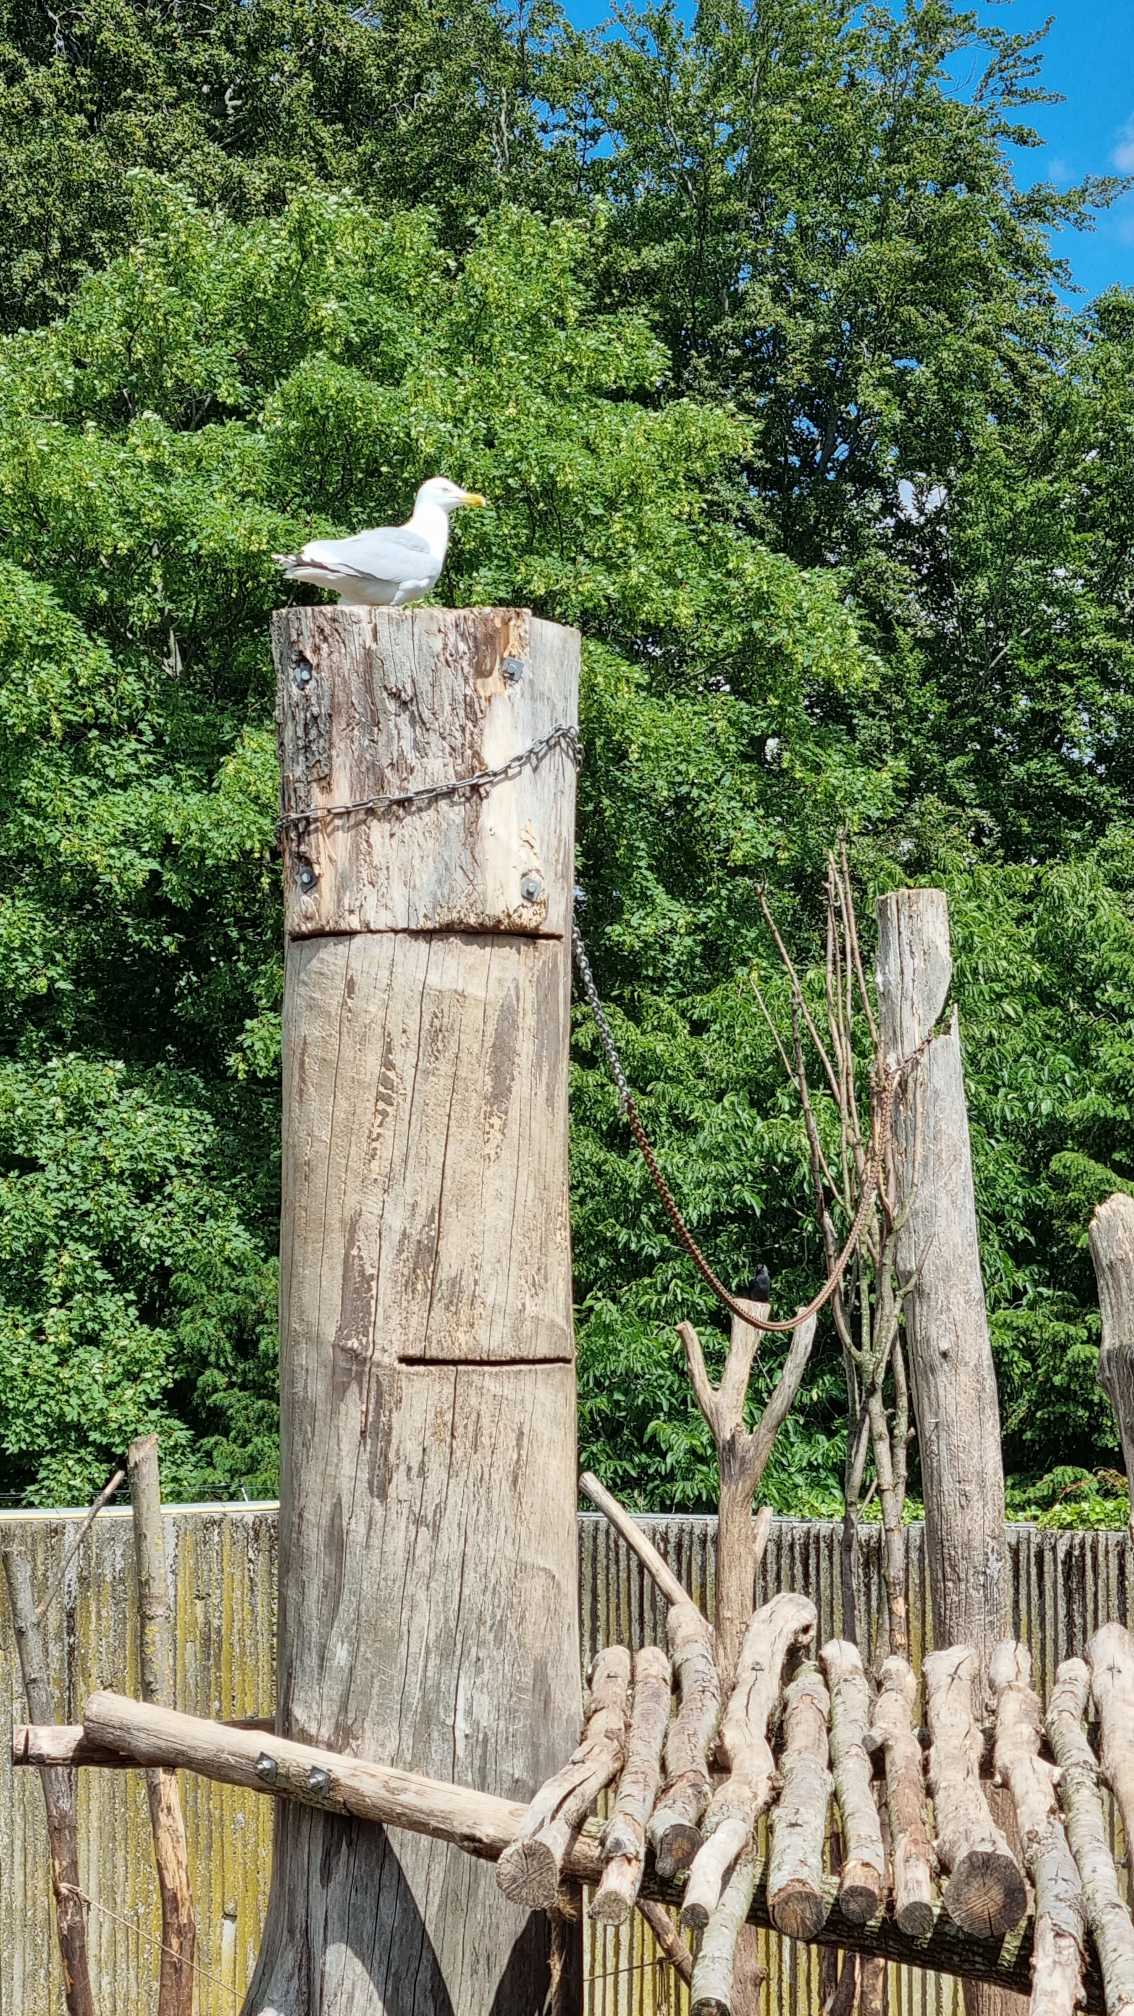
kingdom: Animalia
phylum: Chordata
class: Aves
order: Charadriiformes
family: Laridae
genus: Larus
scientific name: Larus argentatus
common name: Sølvmåge
